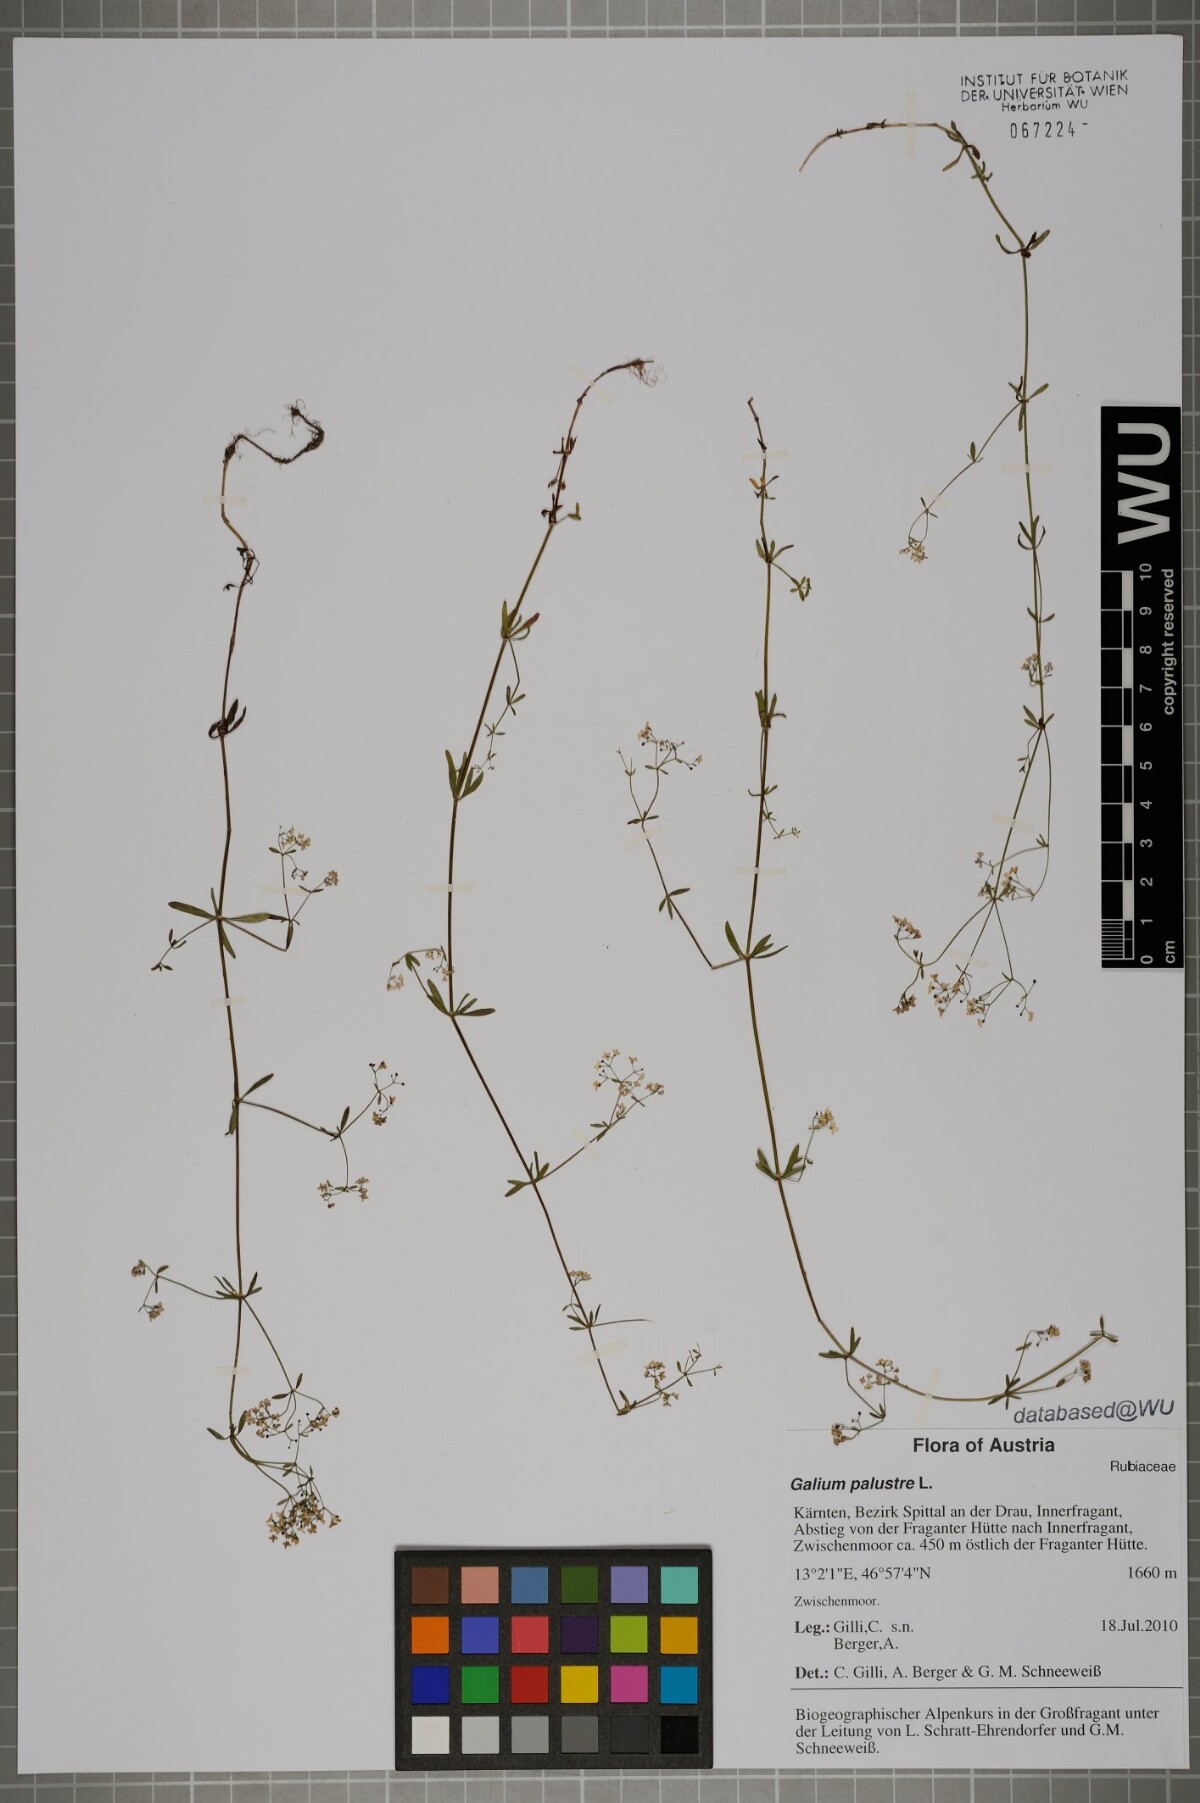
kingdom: Plantae
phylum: Tracheophyta
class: Magnoliopsida
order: Gentianales
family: Rubiaceae
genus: Galium
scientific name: Galium palustre
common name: Common marsh-bedstraw
